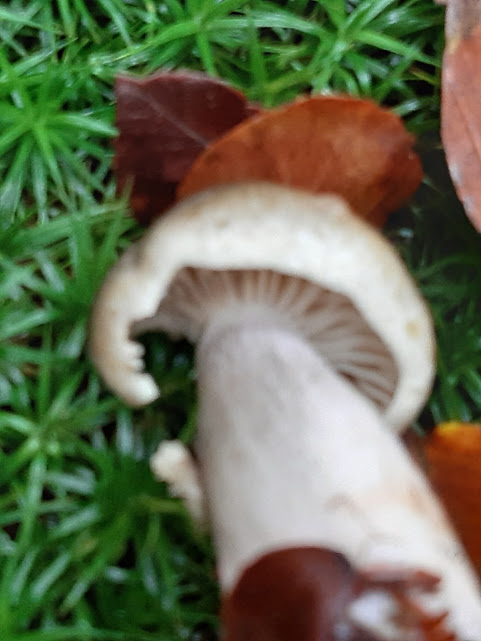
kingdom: Fungi
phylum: Basidiomycota
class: Agaricomycetes
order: Agaricales
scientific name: Agaricales
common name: champignonordenen
